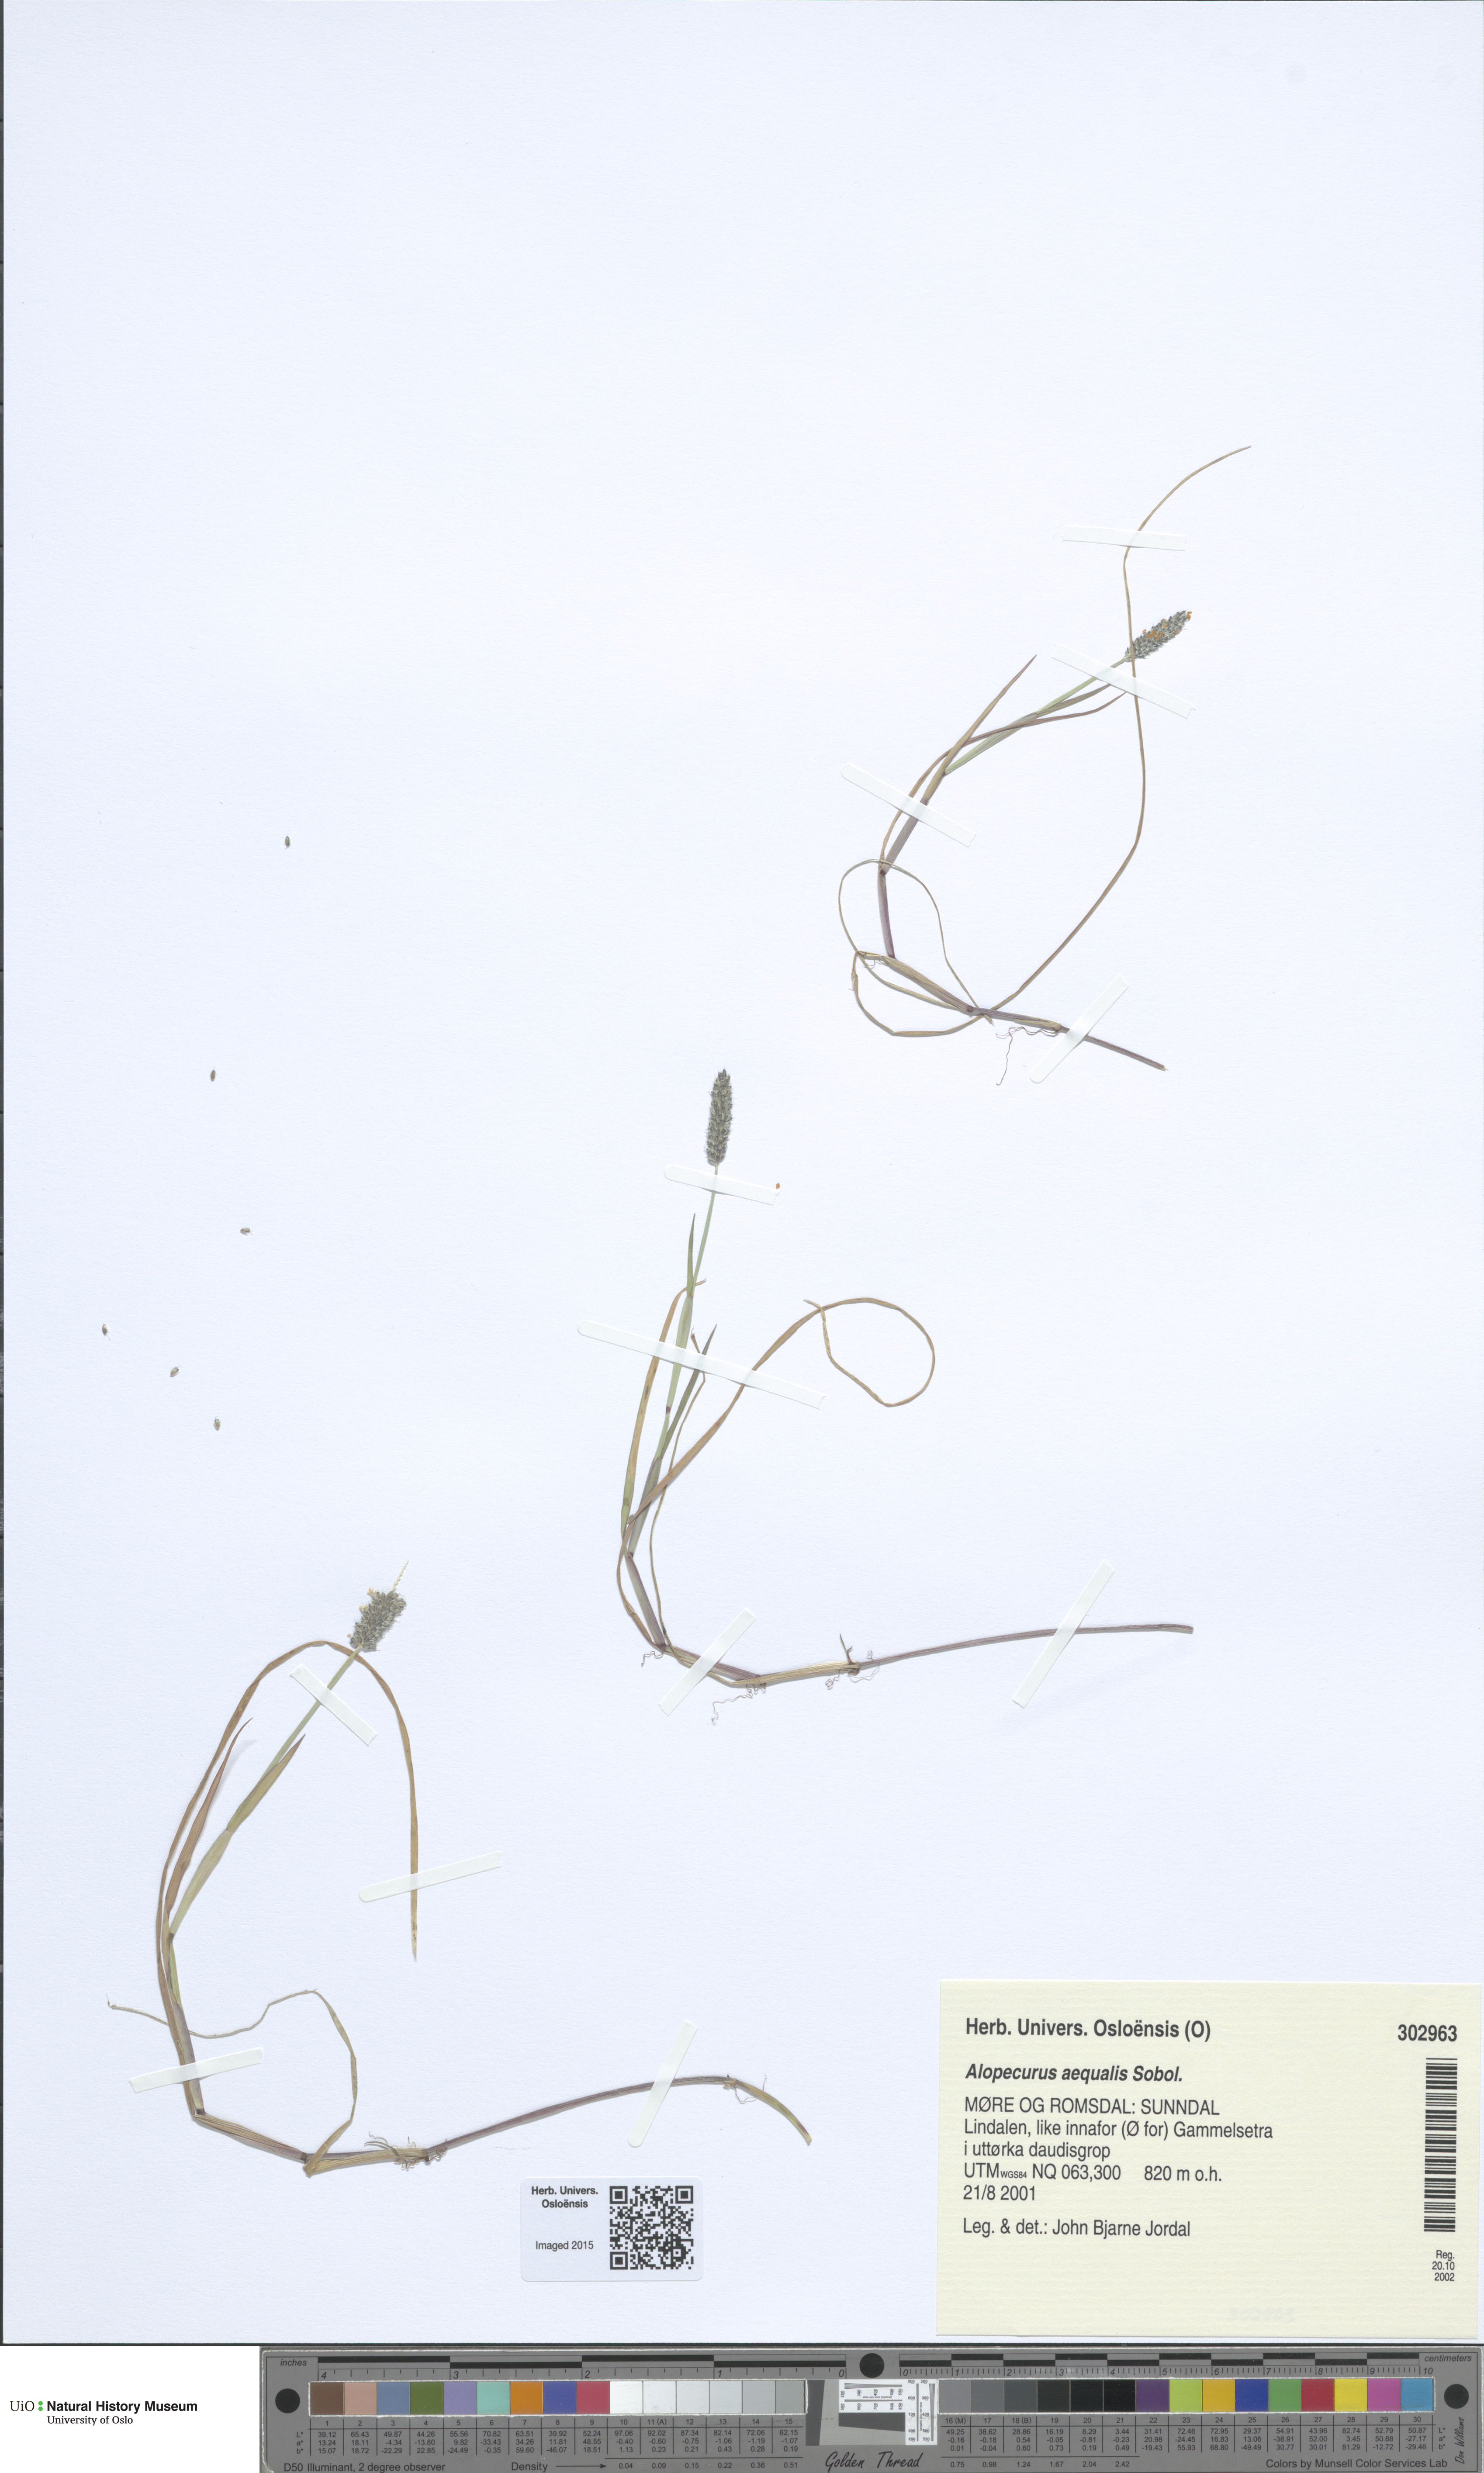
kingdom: Plantae
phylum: Tracheophyta
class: Liliopsida
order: Poales
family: Poaceae
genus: Alopecurus
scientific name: Alopecurus aequalis
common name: Orange foxtail
